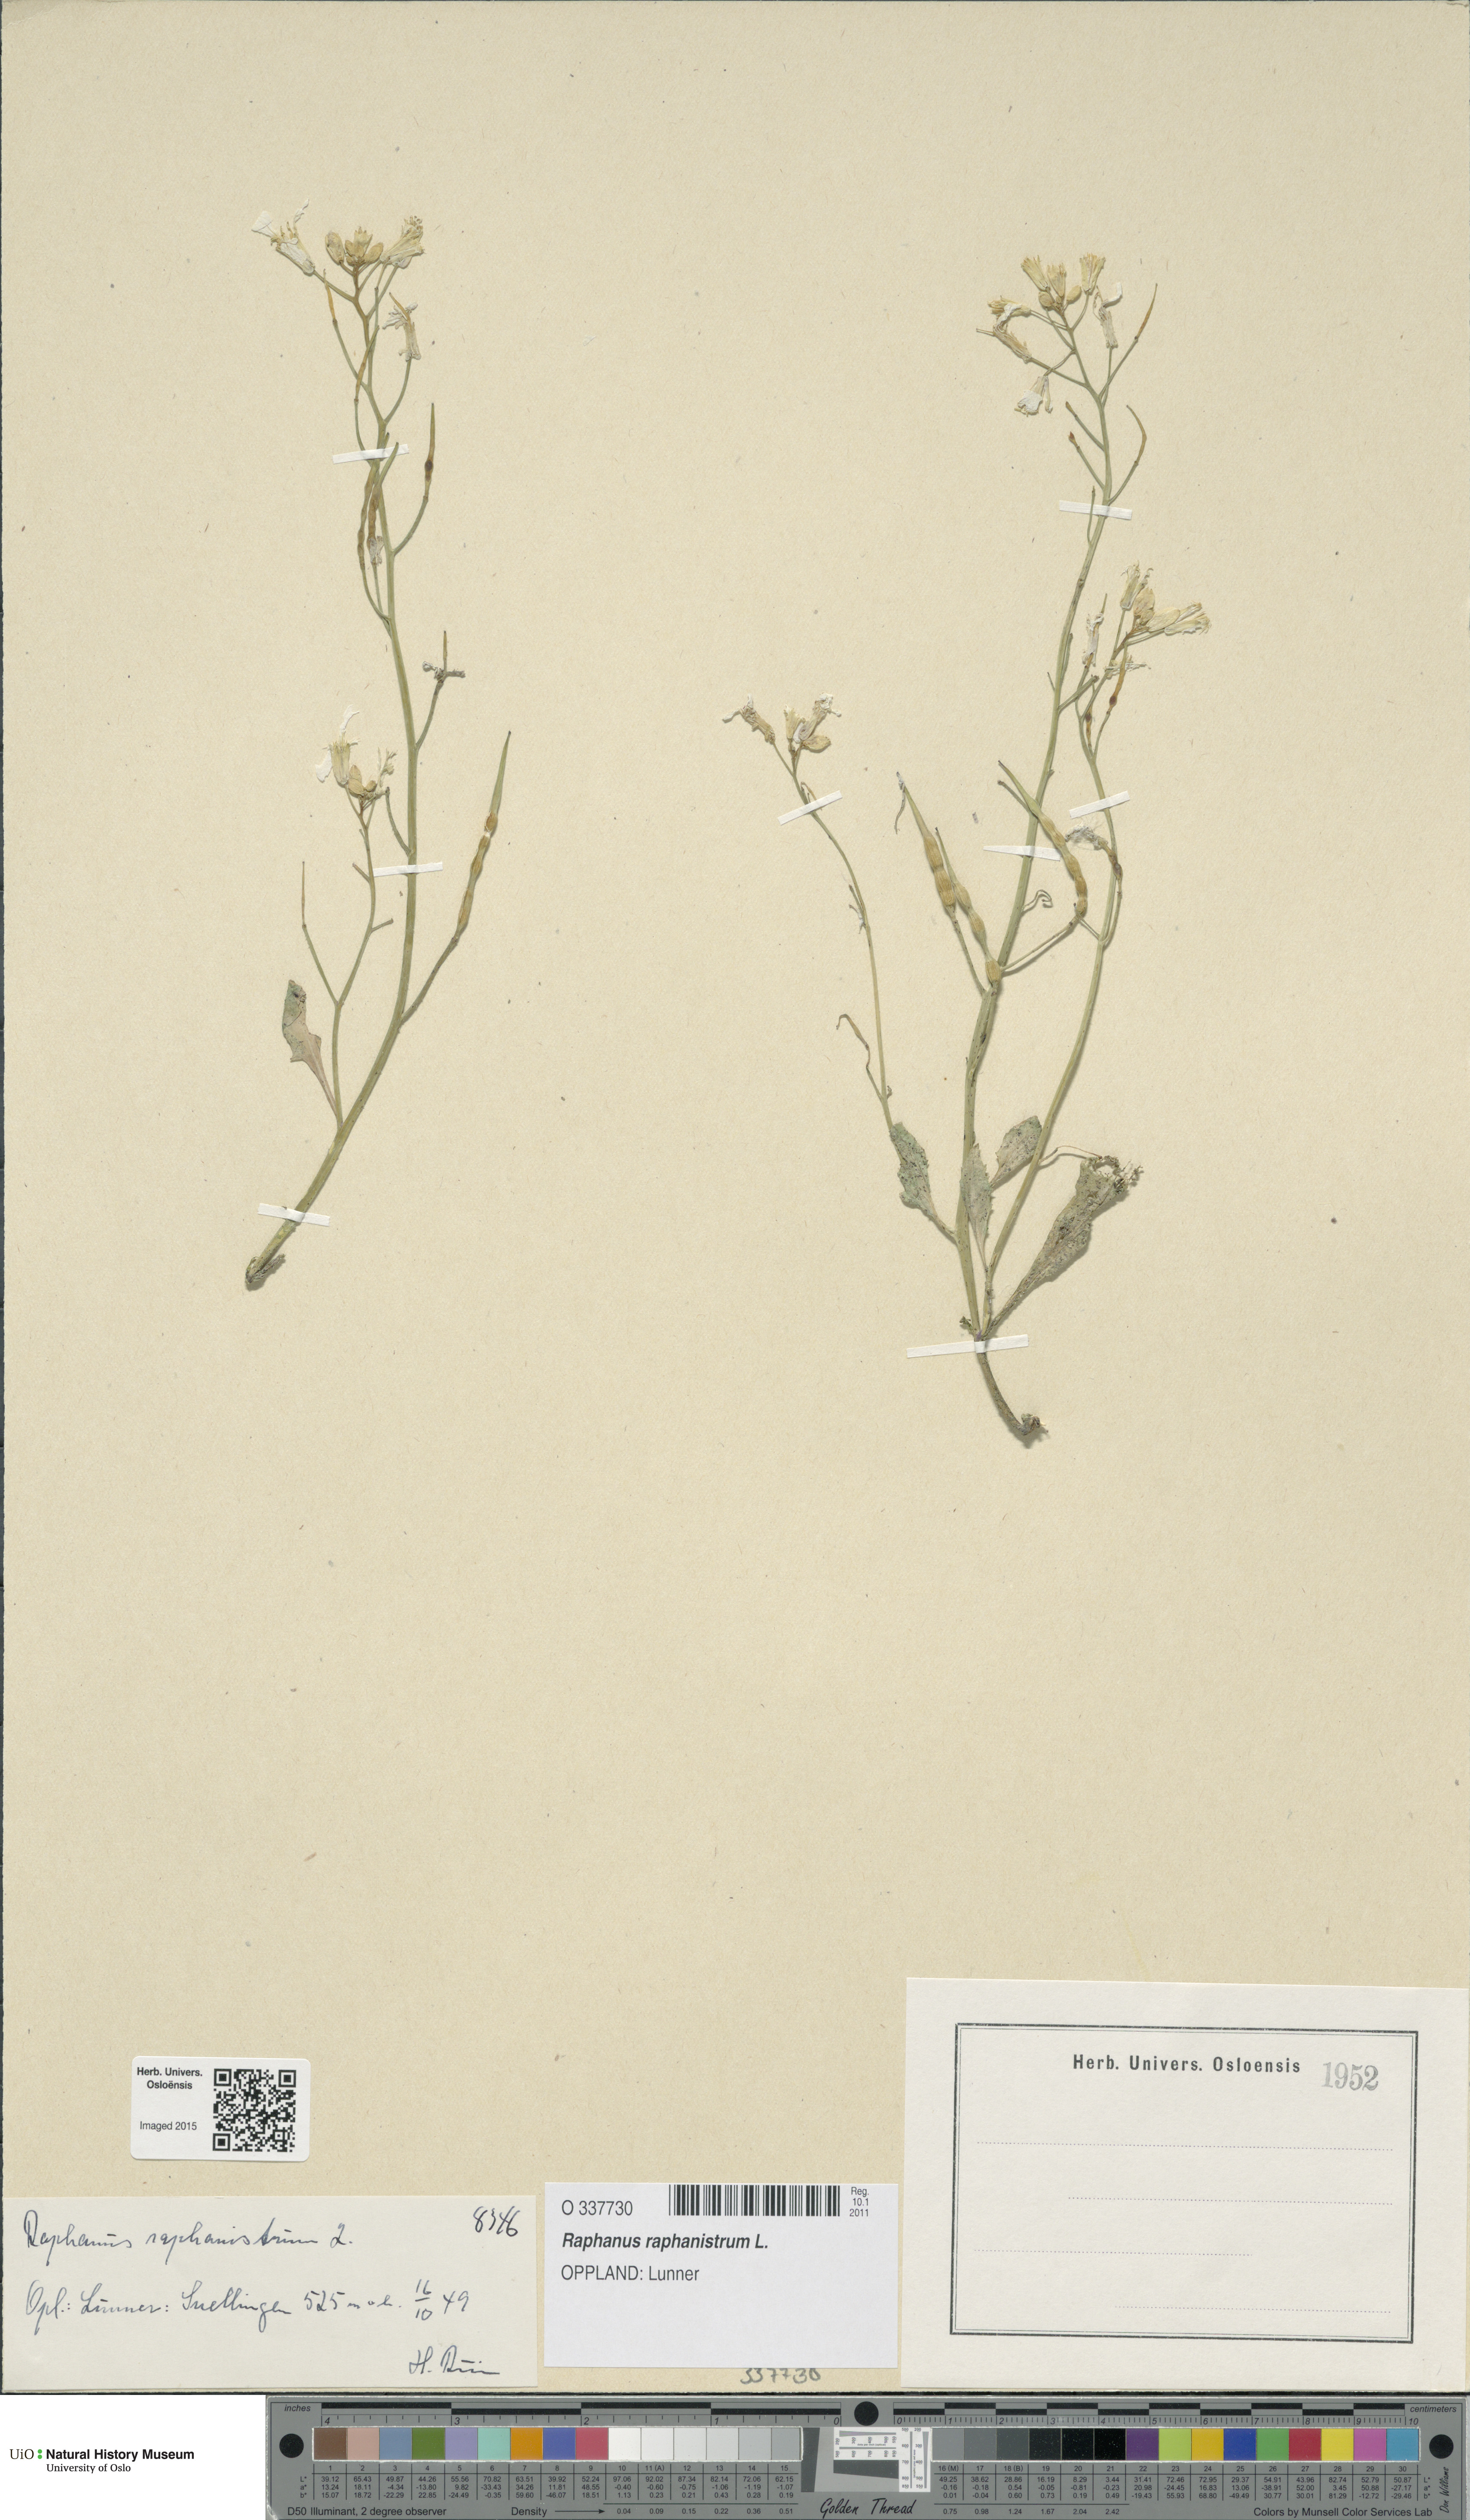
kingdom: Plantae
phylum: Tracheophyta
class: Magnoliopsida
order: Brassicales
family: Brassicaceae
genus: Raphanus
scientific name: Raphanus raphanistrum
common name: Wild radish
